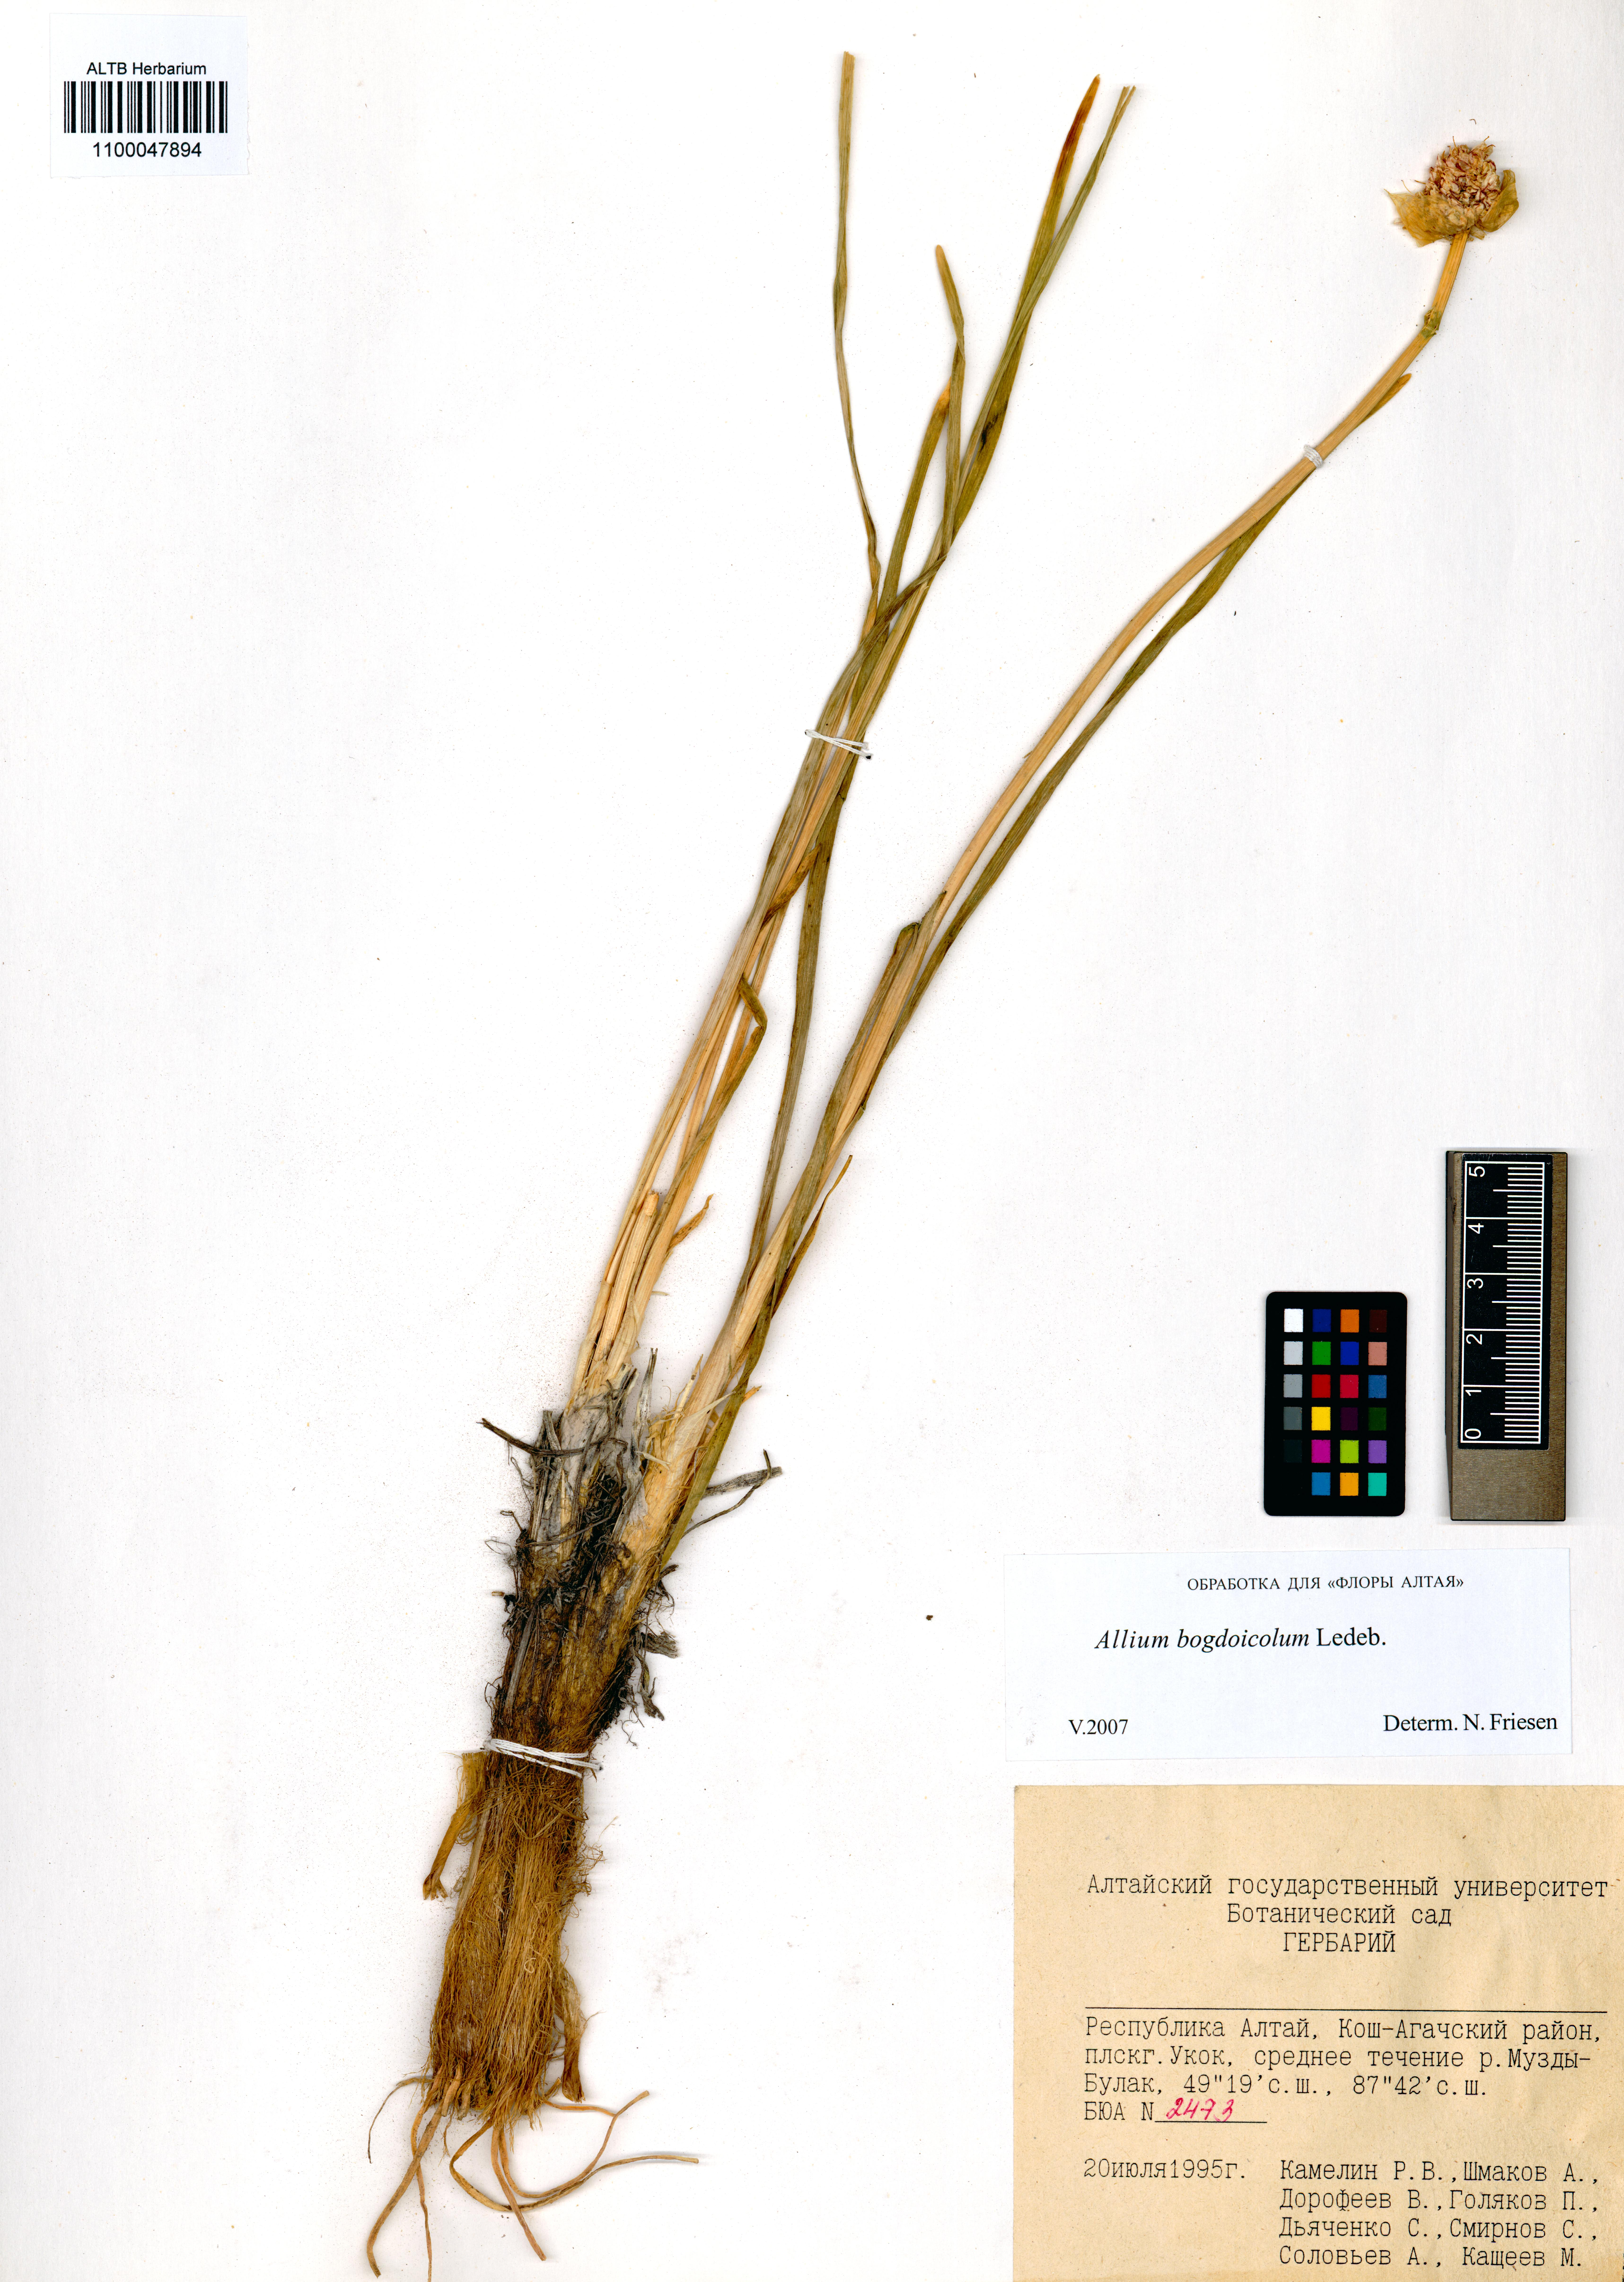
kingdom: Plantae
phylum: Tracheophyta
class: Liliopsida
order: Asparagales
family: Amaryllidaceae
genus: Allium
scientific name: Allium schrenkii
